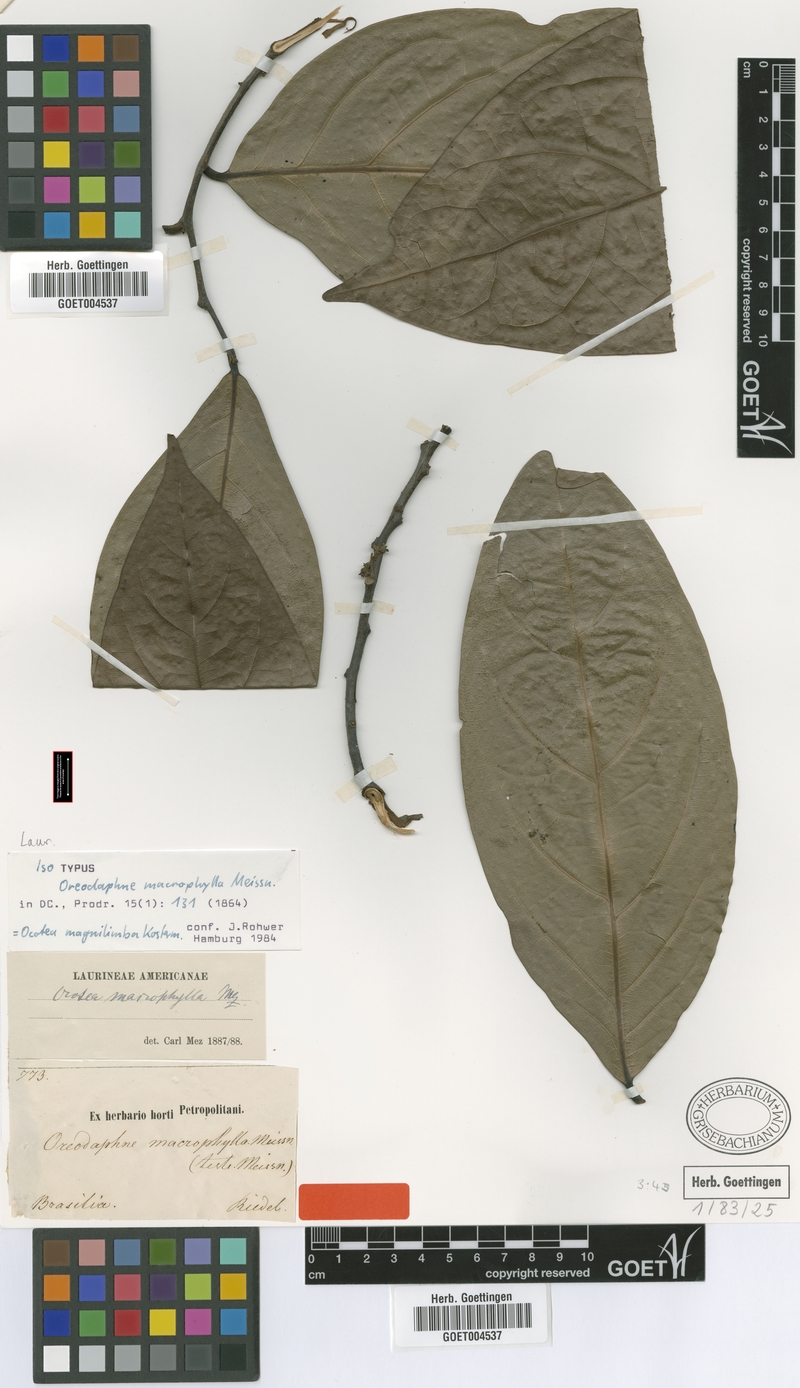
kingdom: Plantae
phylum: Tracheophyta
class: Magnoliopsida
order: Laurales
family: Lauraceae
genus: Ocotea
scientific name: Ocotea magnilimba
